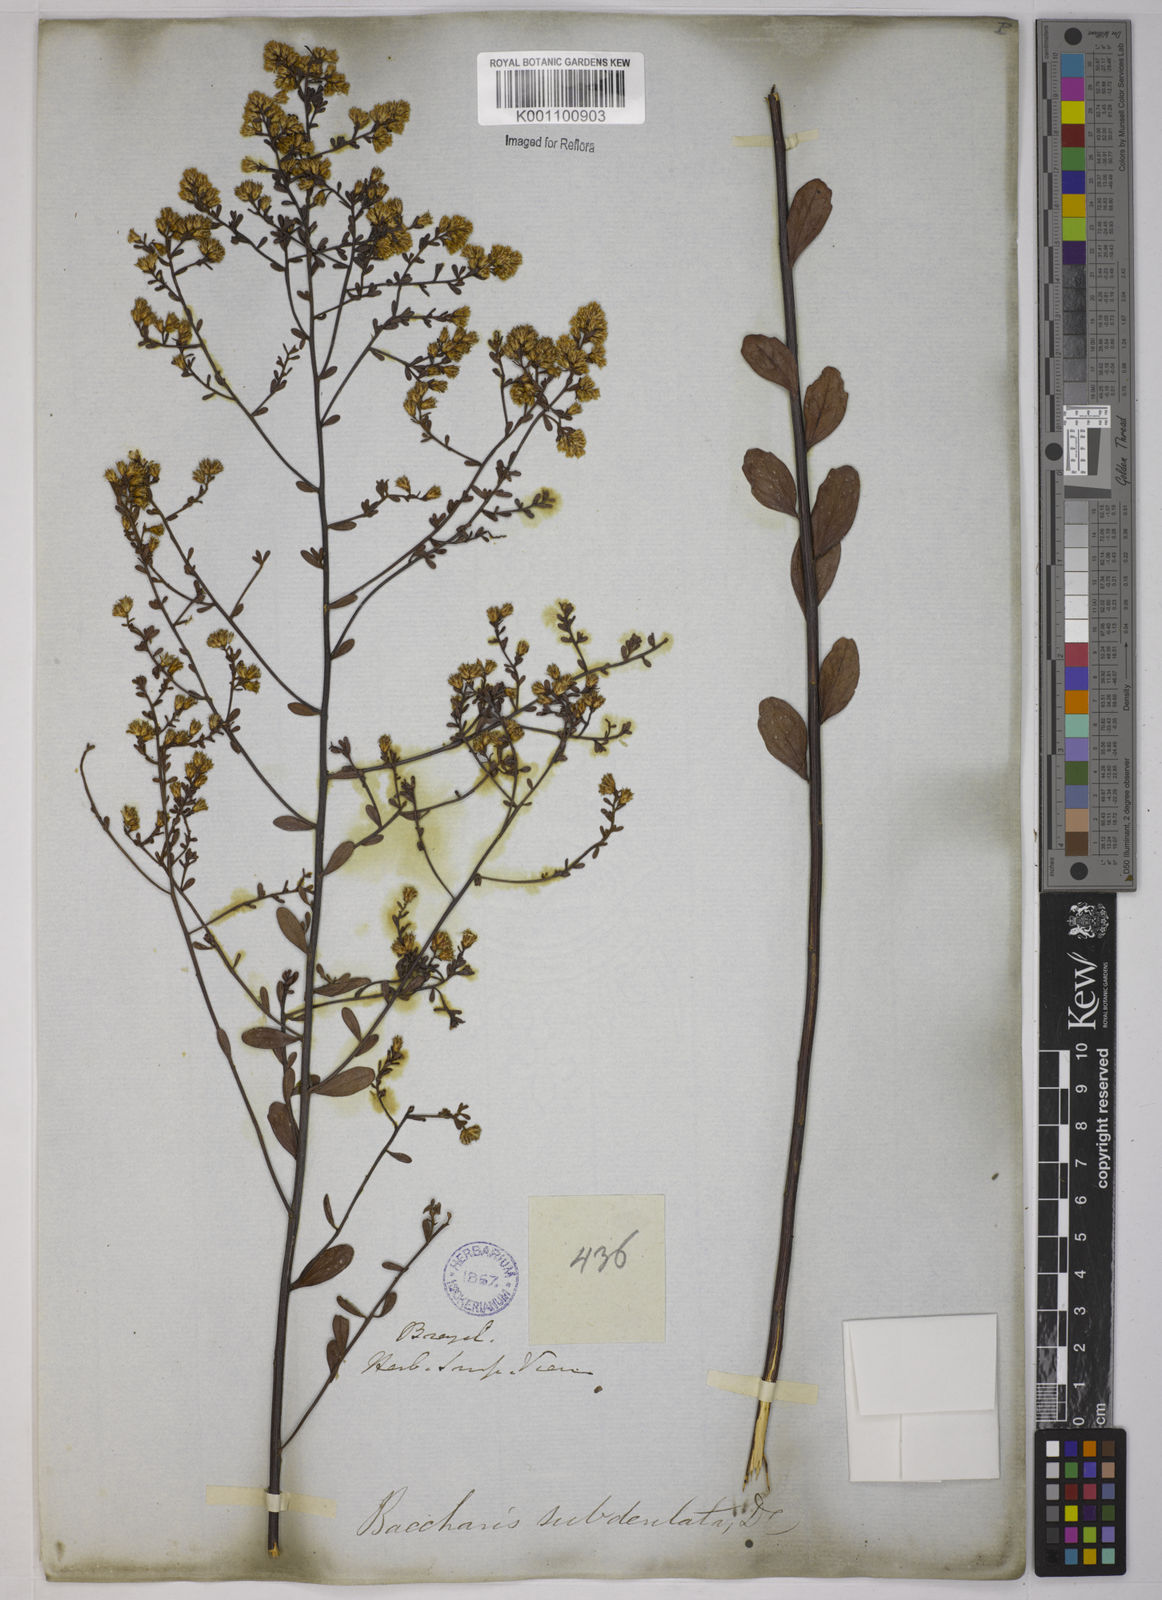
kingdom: Plantae
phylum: Tracheophyta
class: Magnoliopsida
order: Asterales
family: Asteraceae
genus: Baccharis
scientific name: Baccharis subdentata
